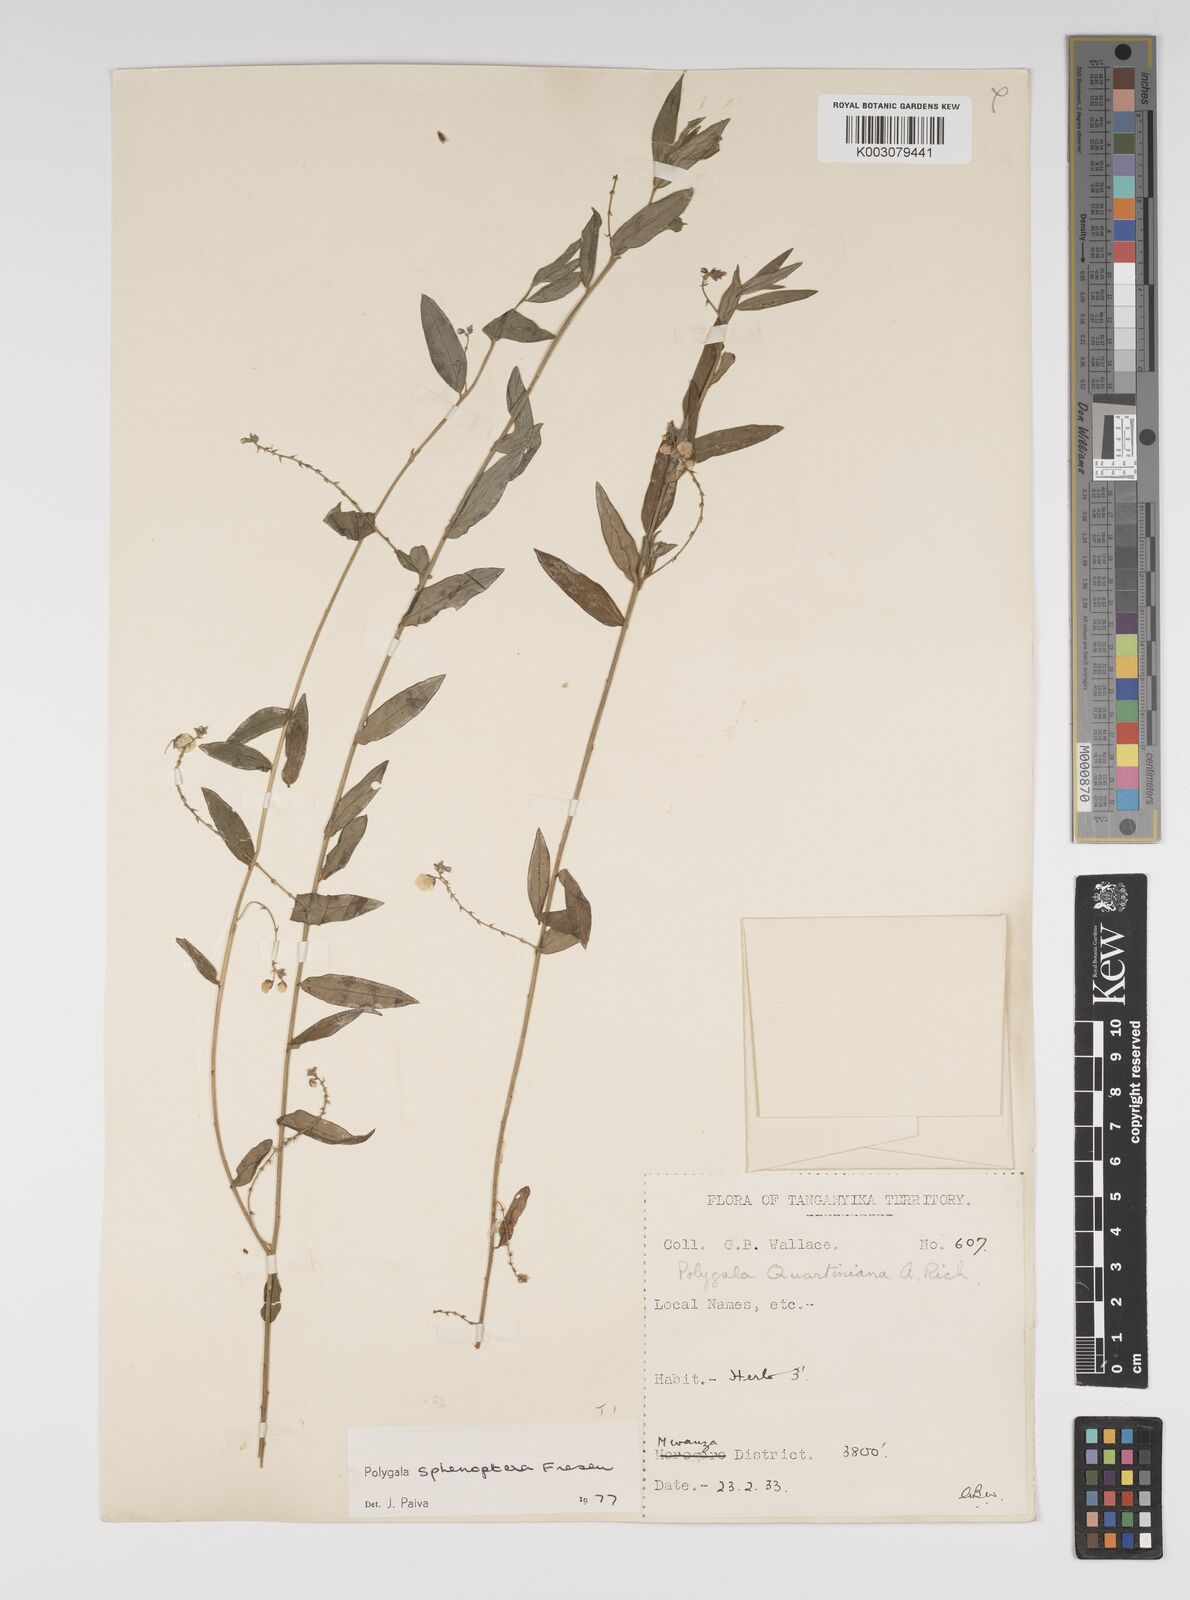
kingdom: Plantae
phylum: Tracheophyta
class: Magnoliopsida
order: Fabales
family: Polygalaceae
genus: Polygala
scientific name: Polygala sphenoptera
